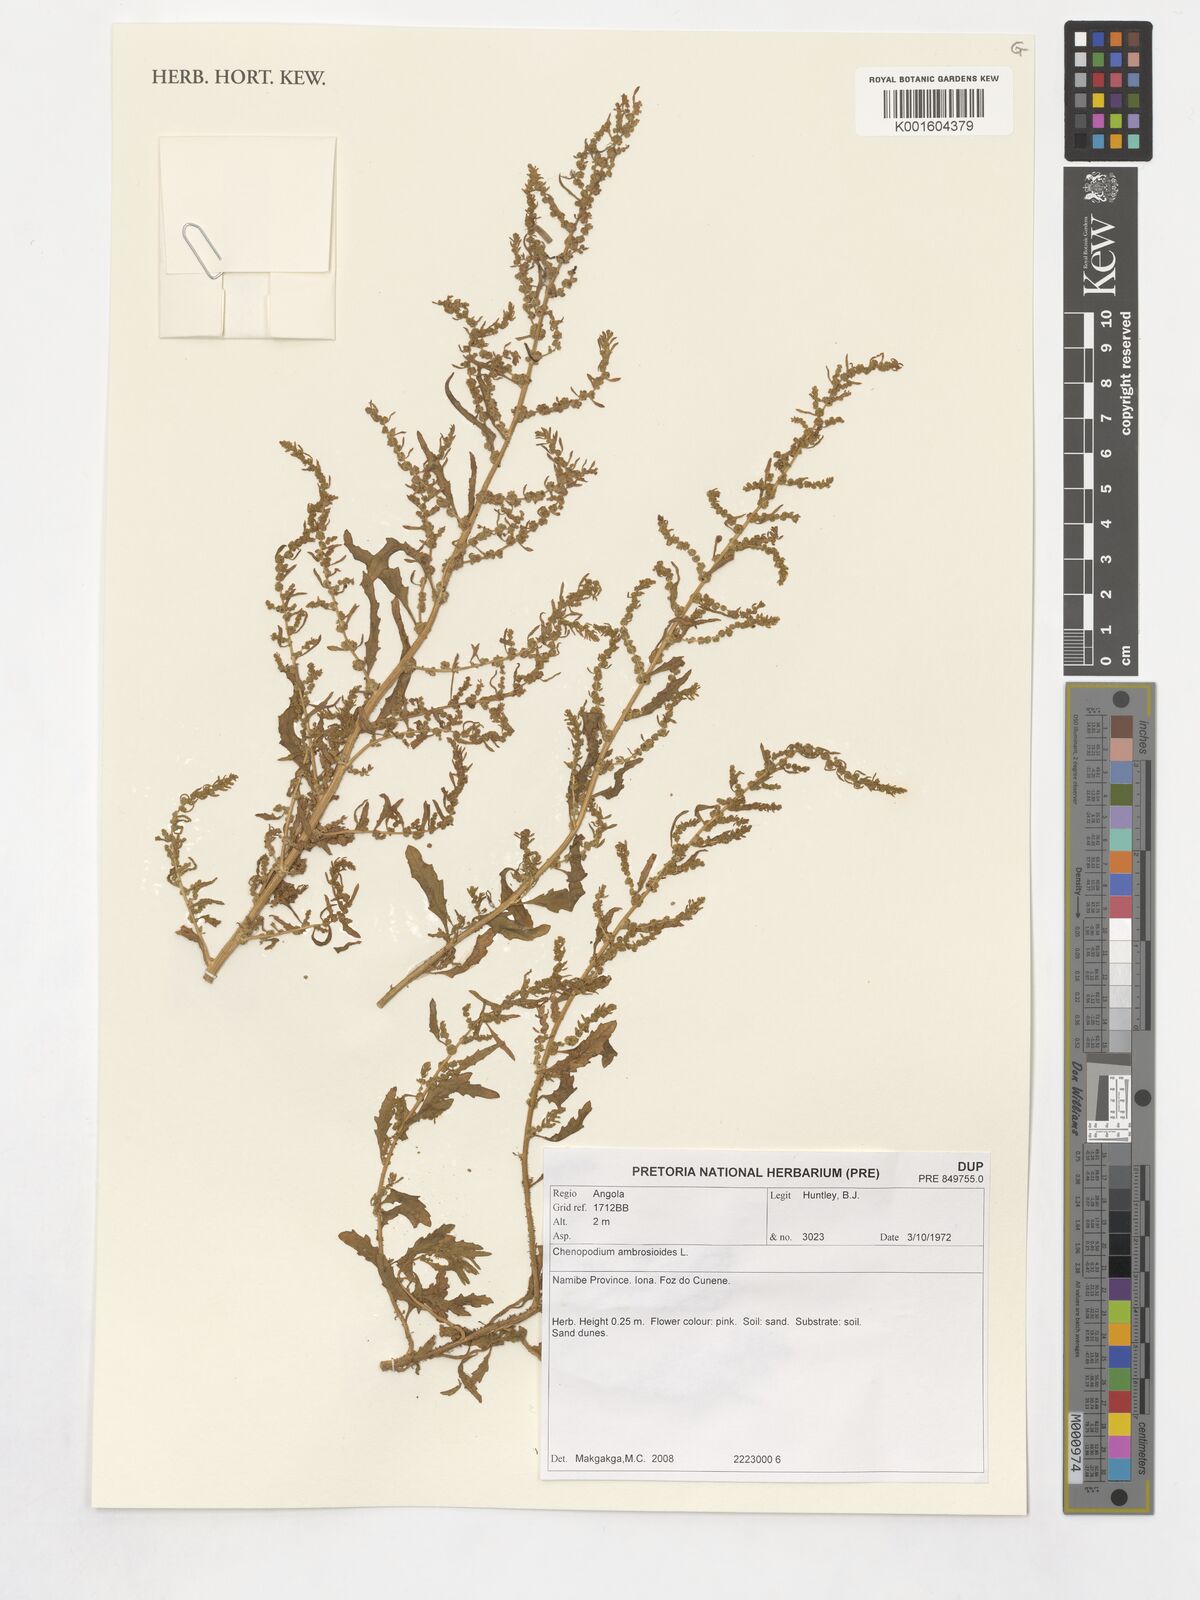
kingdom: Plantae
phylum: Tracheophyta
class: Magnoliopsida
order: Caryophyllales
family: Amaranthaceae
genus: Dysphania
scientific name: Dysphania ambrosioides
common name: Wormseed
